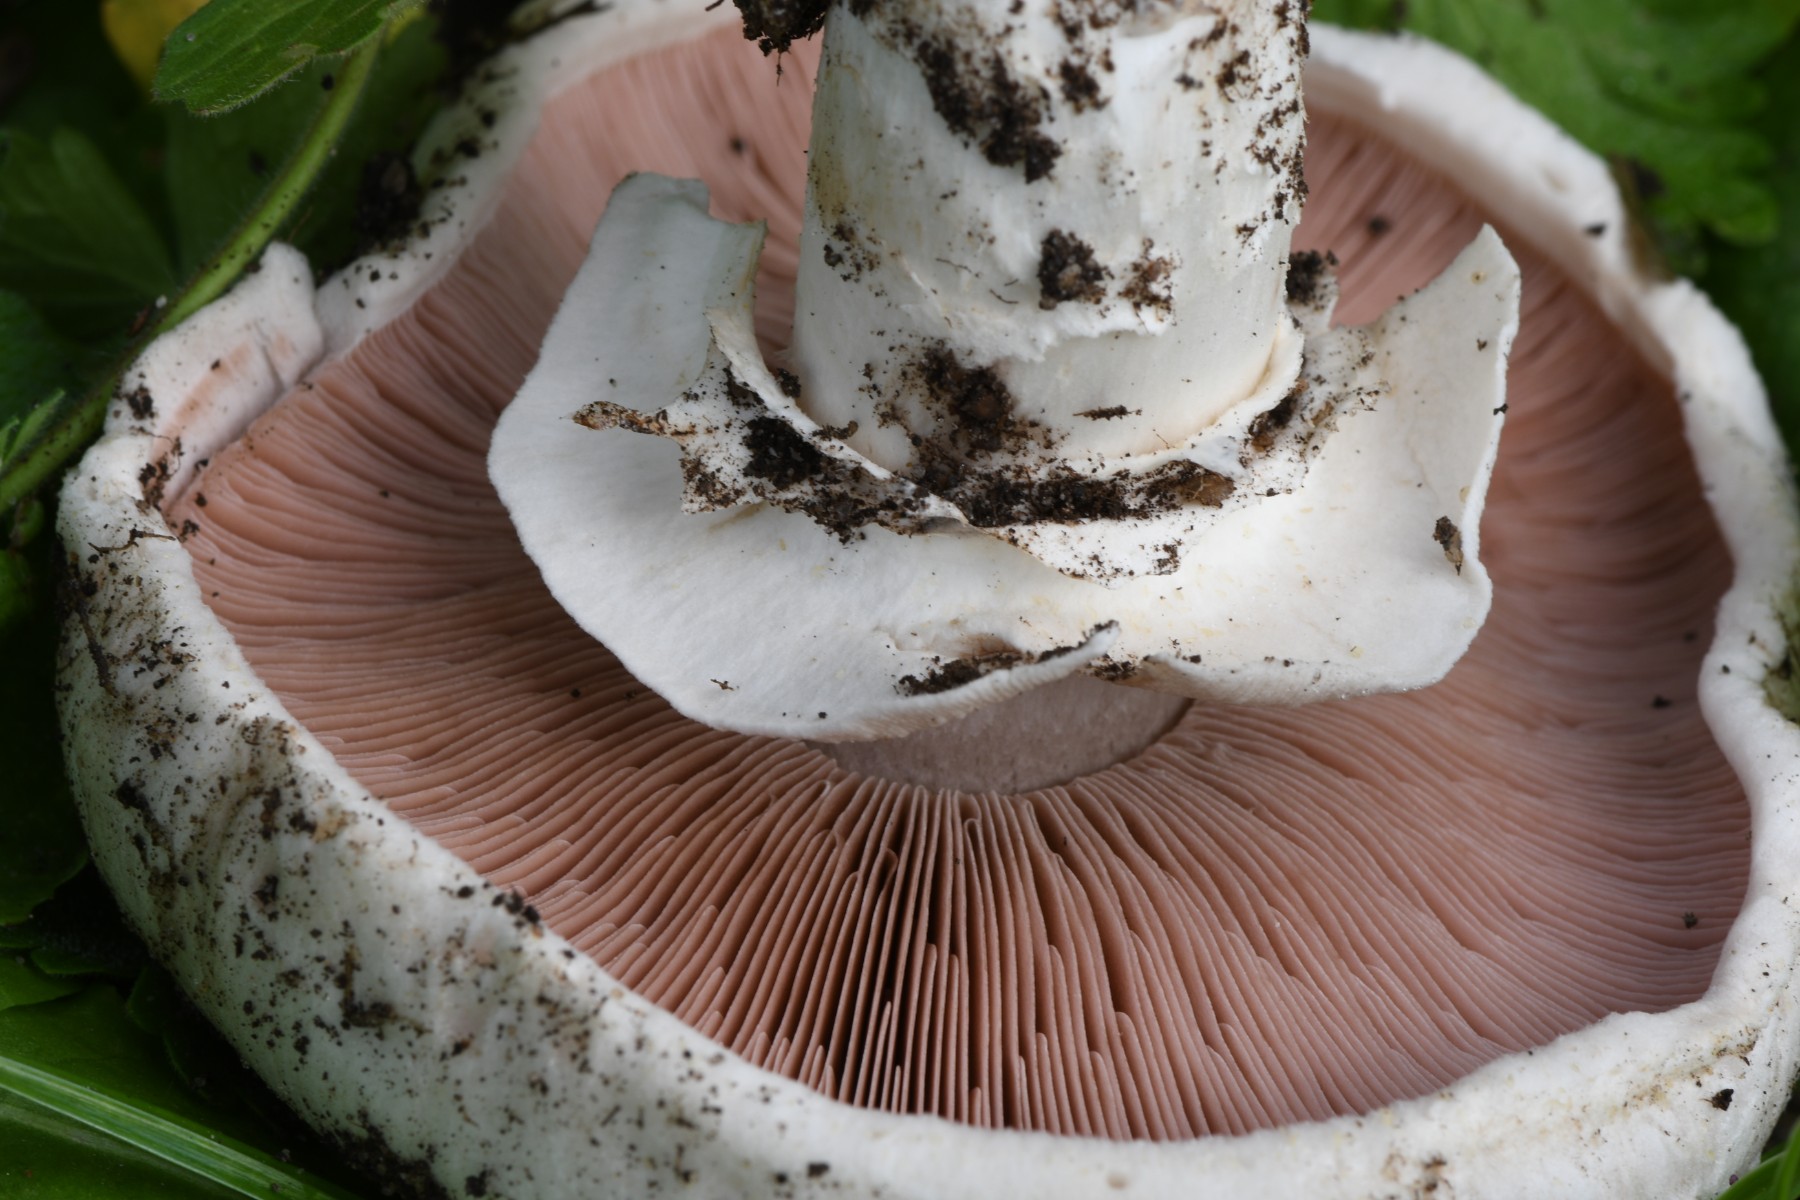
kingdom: Fungi
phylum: Basidiomycota
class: Agaricomycetes
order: Agaricales
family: Agaricaceae
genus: Agaricus
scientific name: Agaricus bitorquis
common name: vej-champignon
